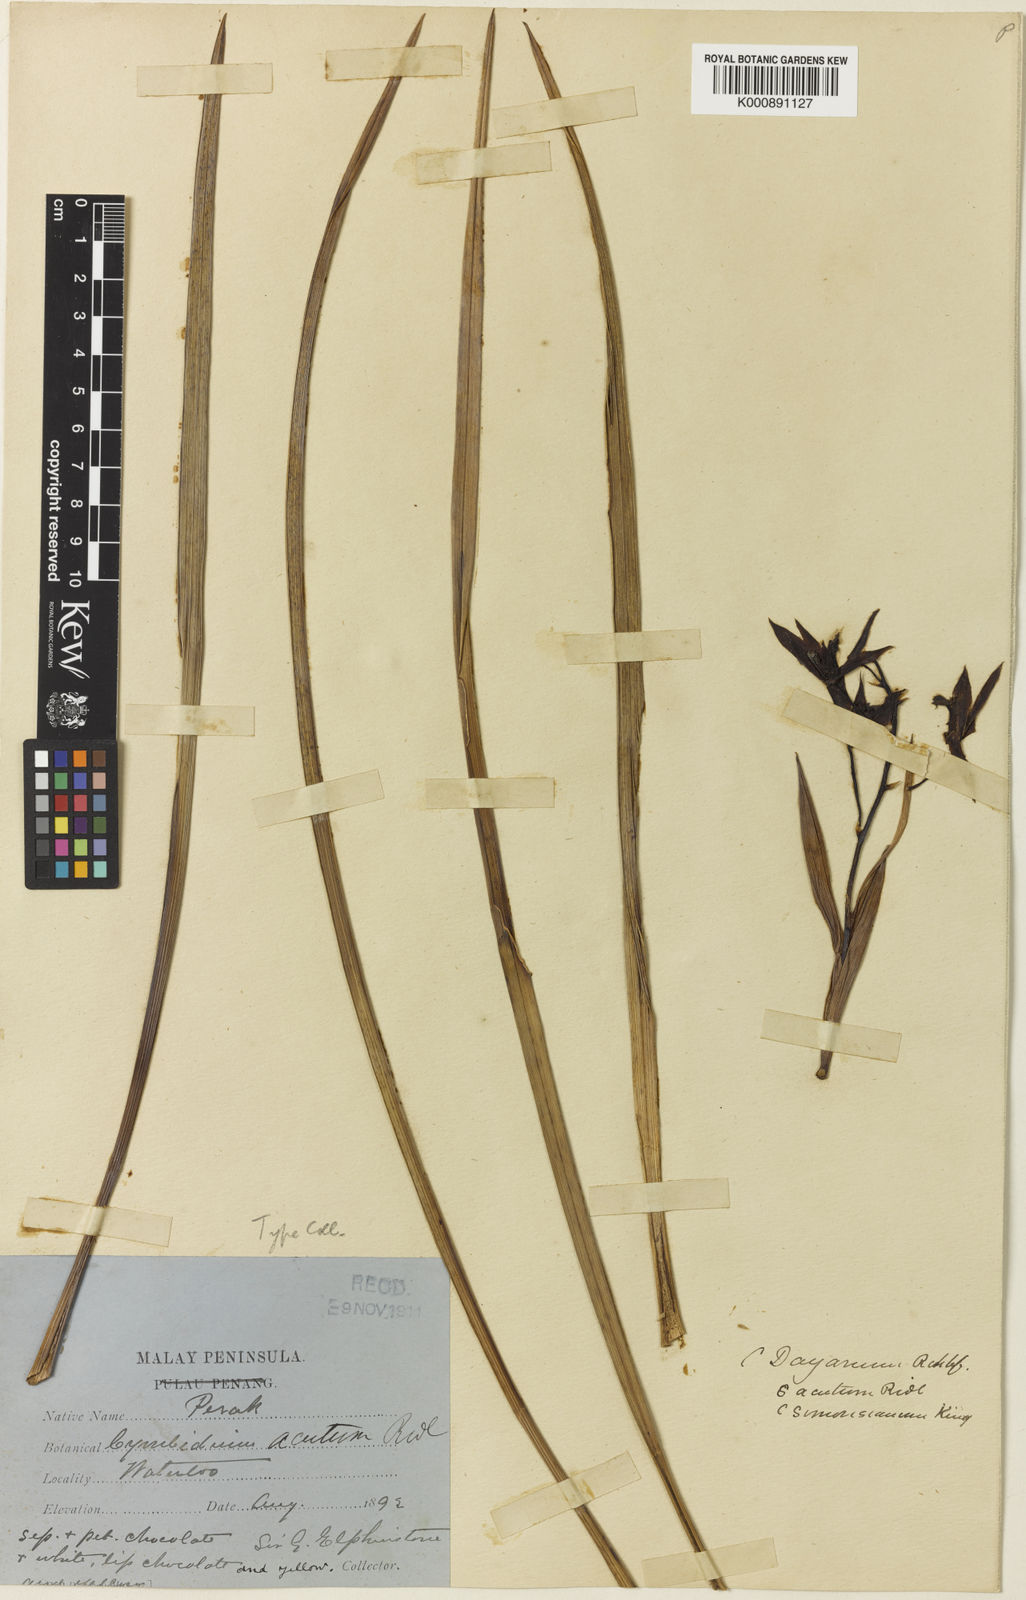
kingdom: Plantae
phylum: Tracheophyta
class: Liliopsida
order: Asparagales
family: Orchidaceae
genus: Cymbidium
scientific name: Cymbidium dayanum
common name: Orchid
